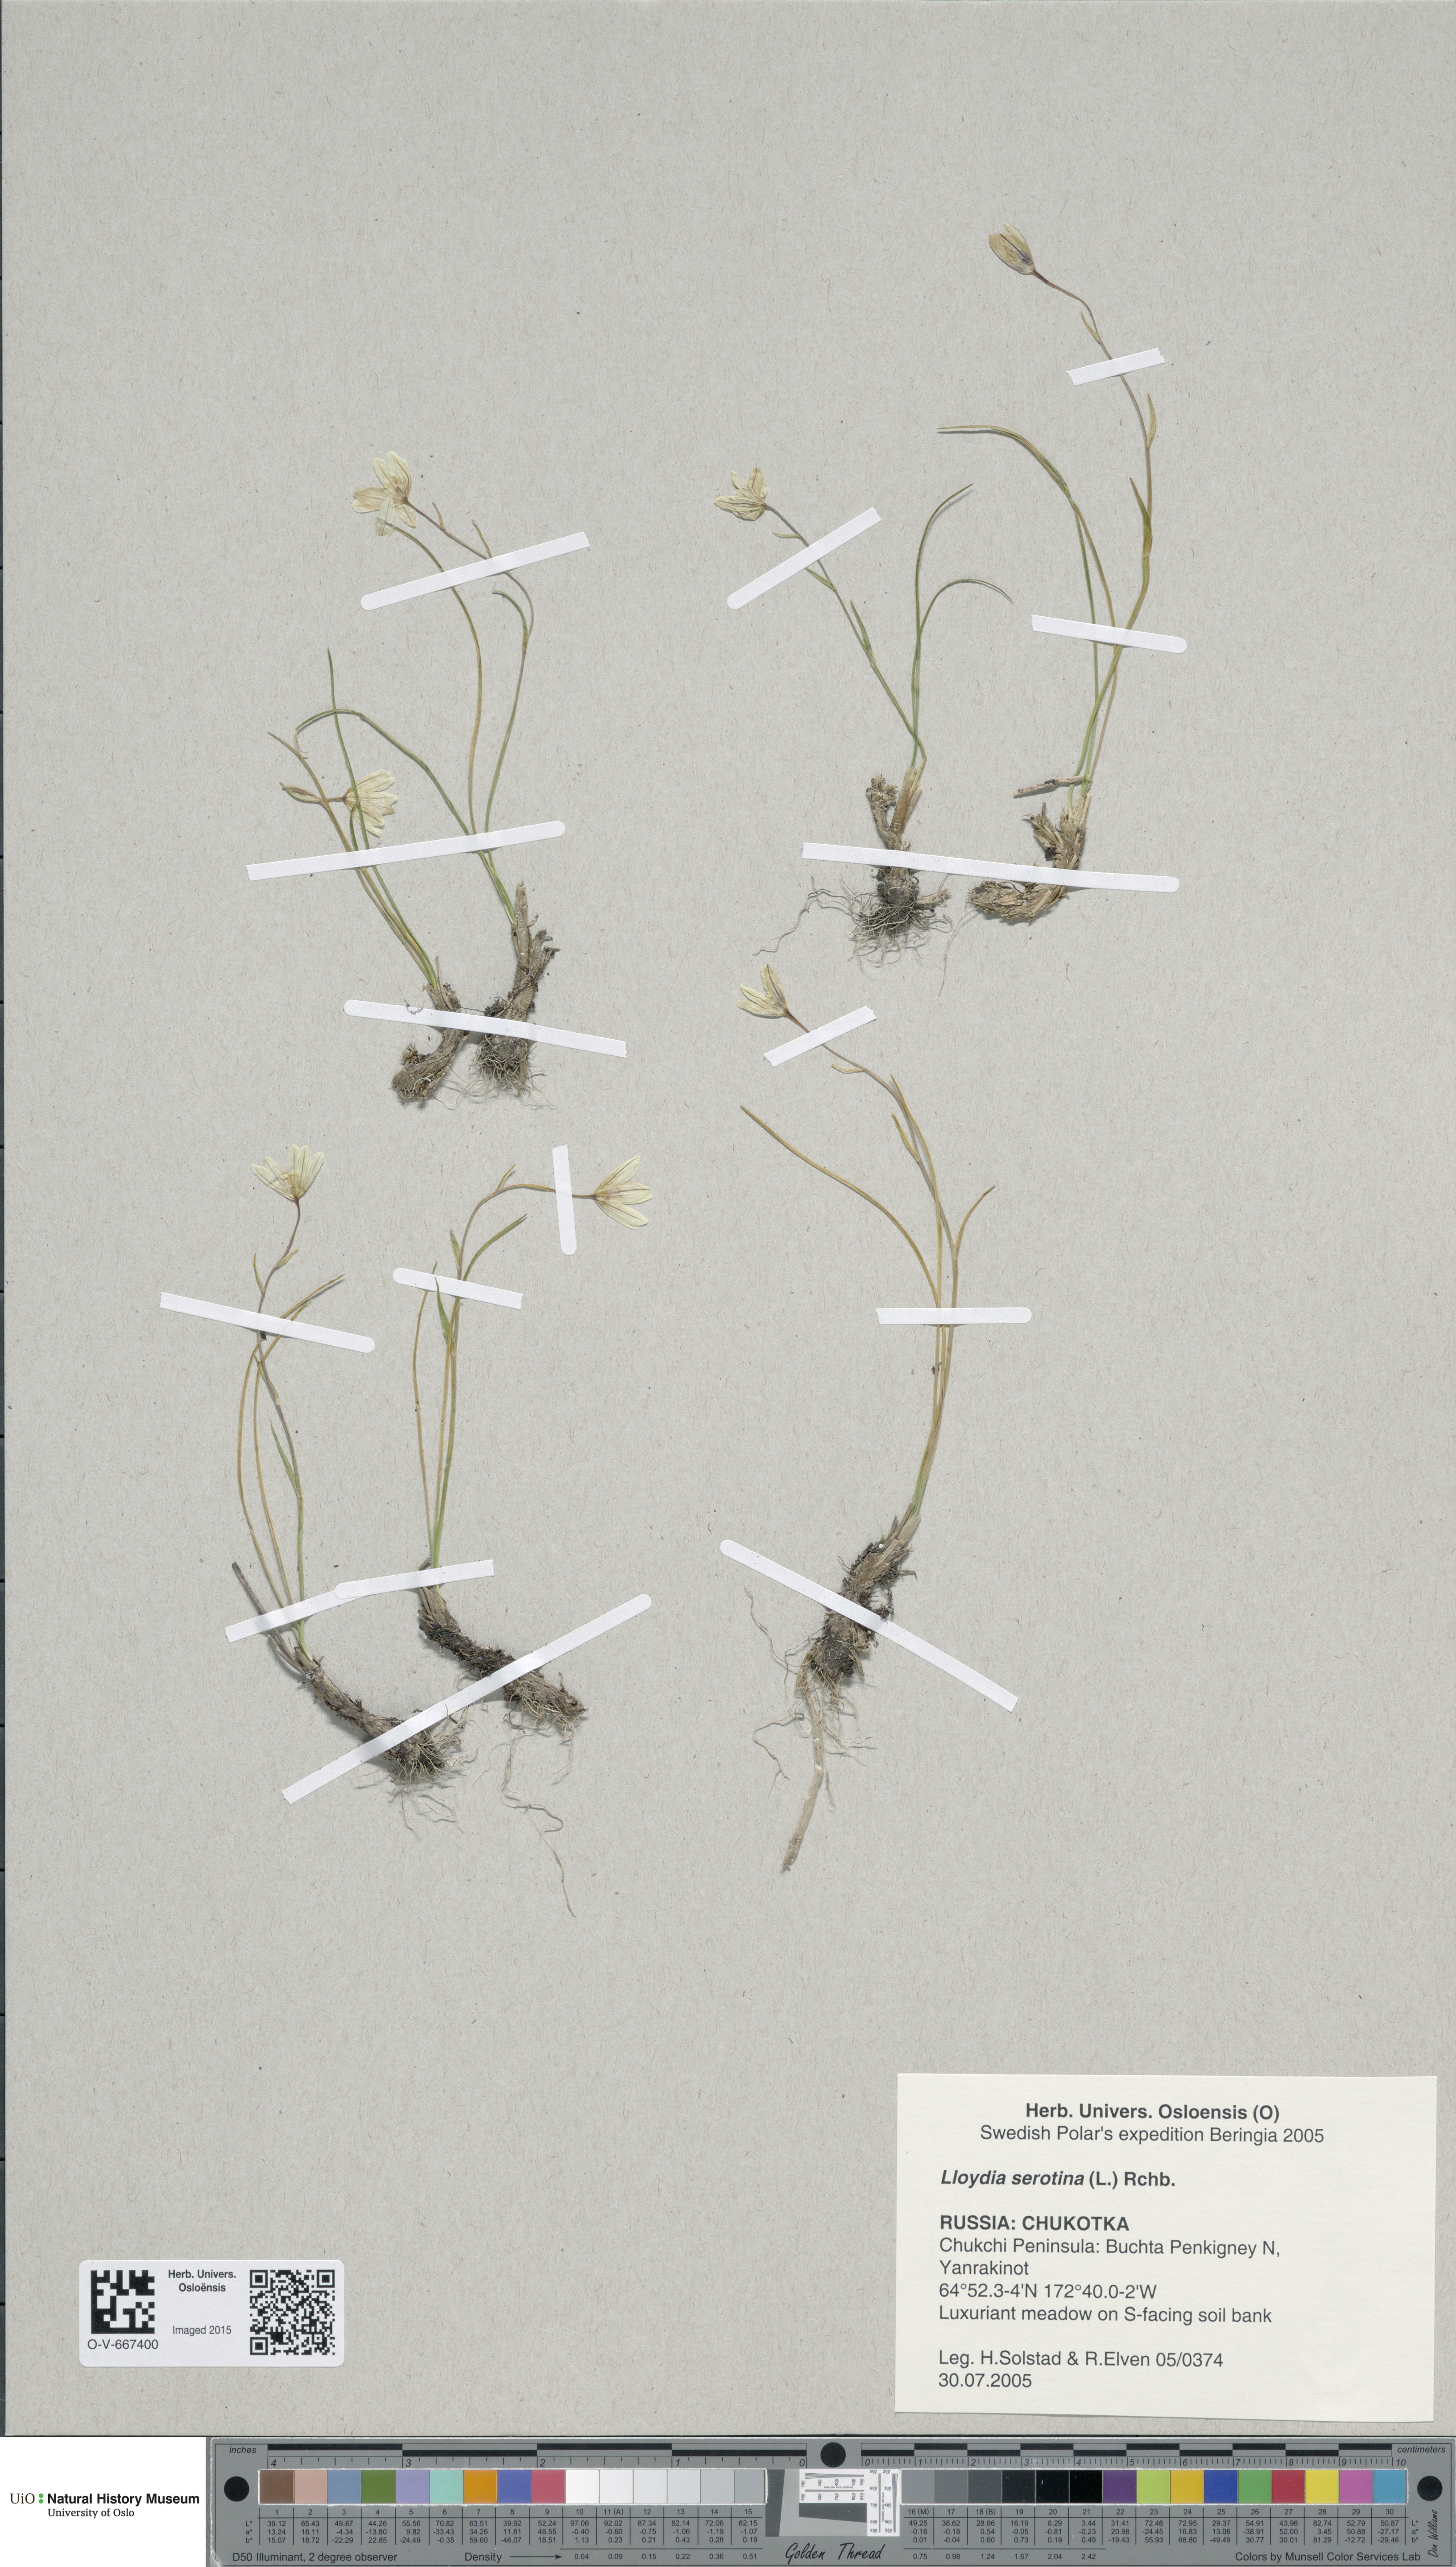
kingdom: Plantae
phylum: Tracheophyta
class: Liliopsida
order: Liliales
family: Liliaceae
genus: Gagea
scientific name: Gagea serotina
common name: Snowdon lily
